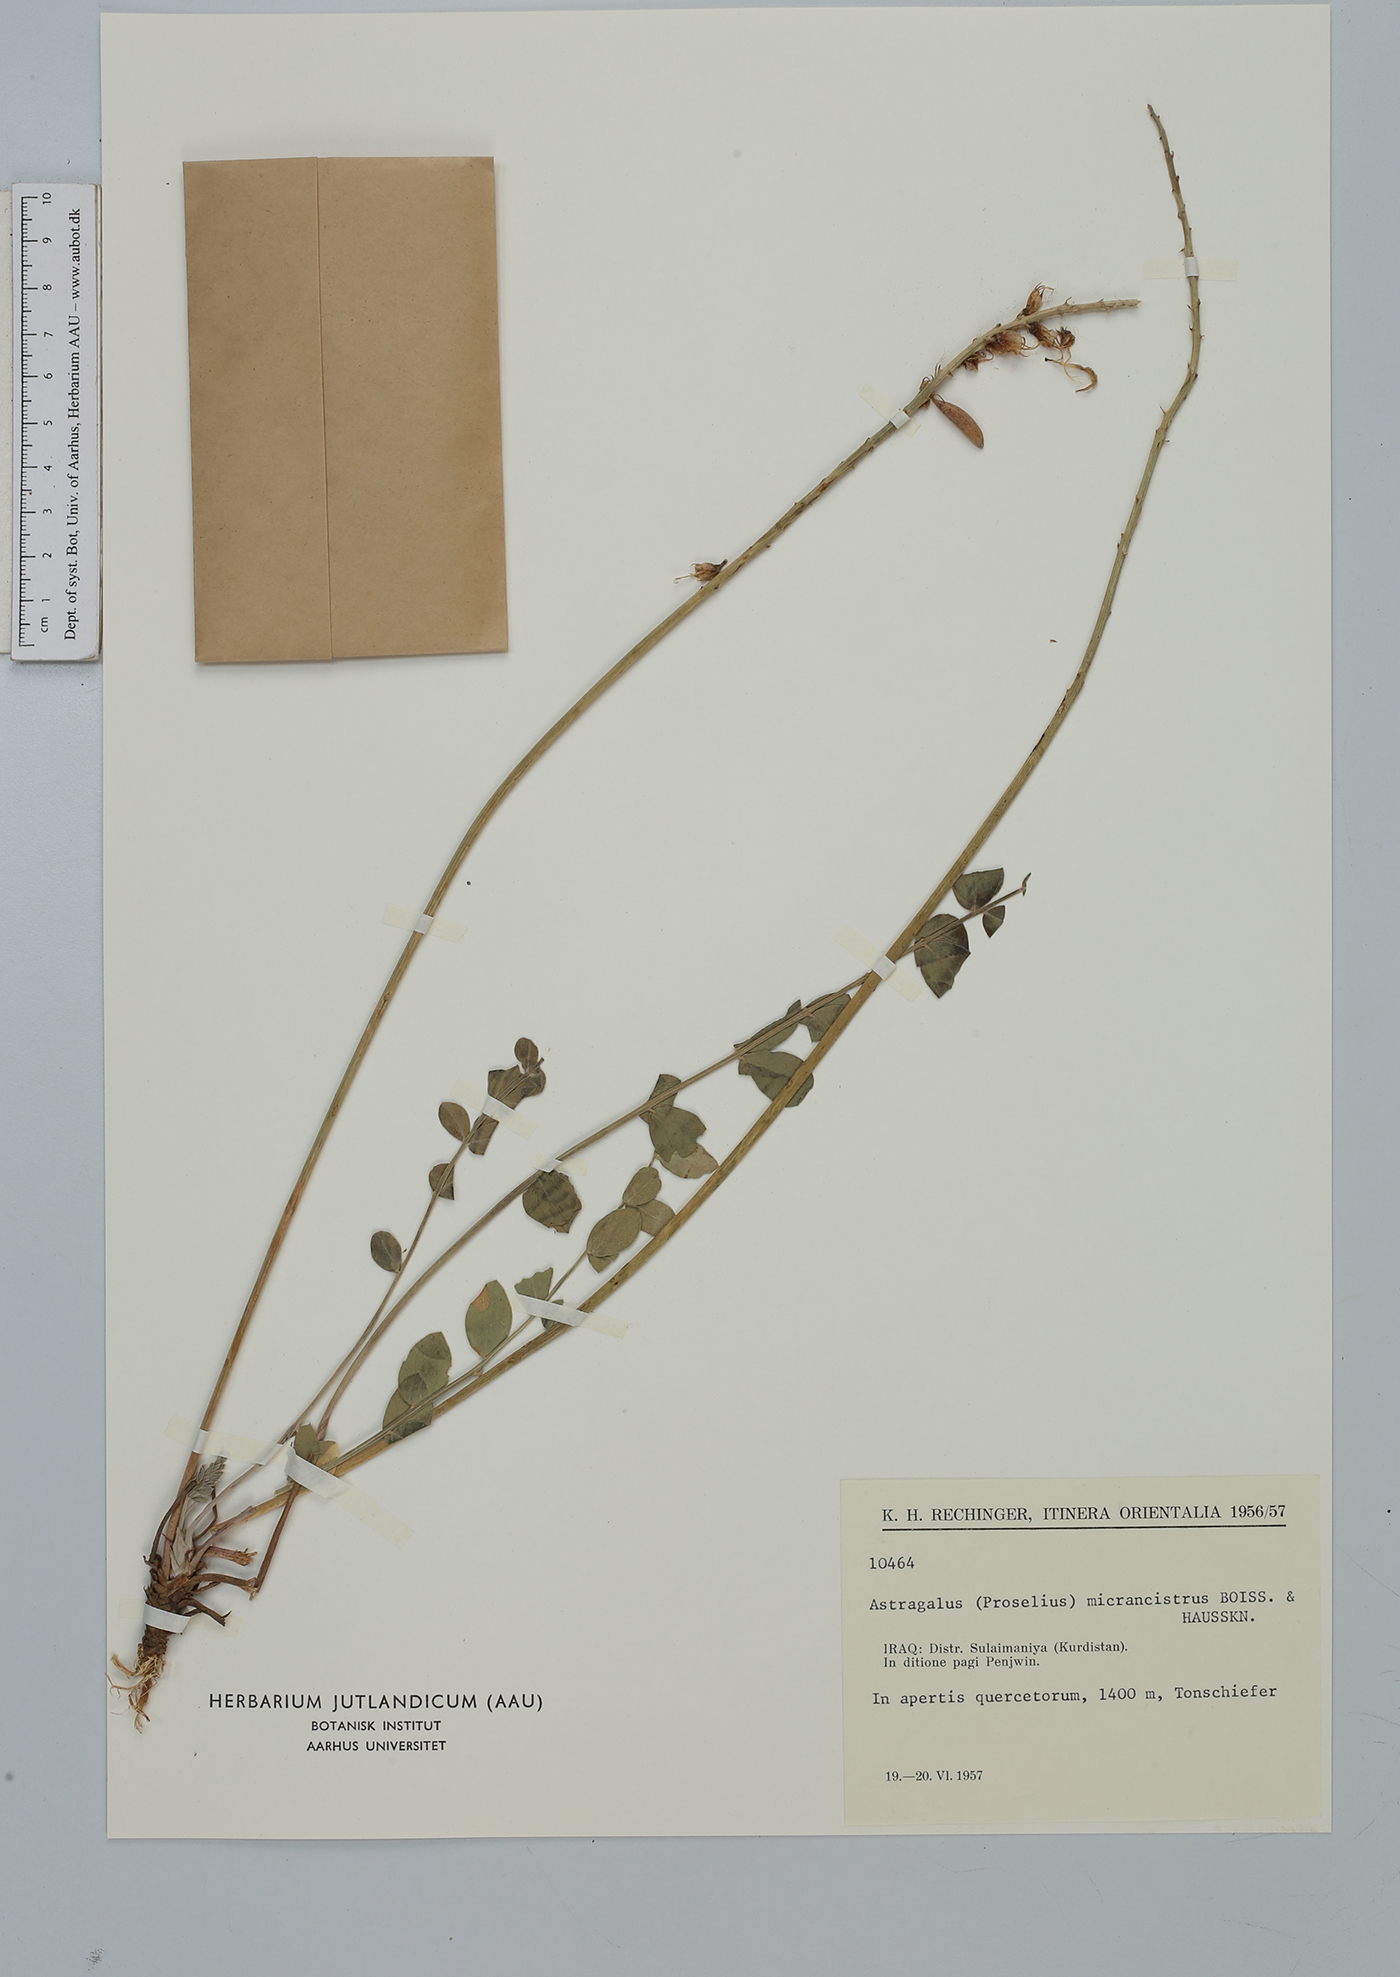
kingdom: Plantae
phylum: Tracheophyta
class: Magnoliopsida
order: Fabales
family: Fabaceae
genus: Astragalus
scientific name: Astragalus micrancistrus
